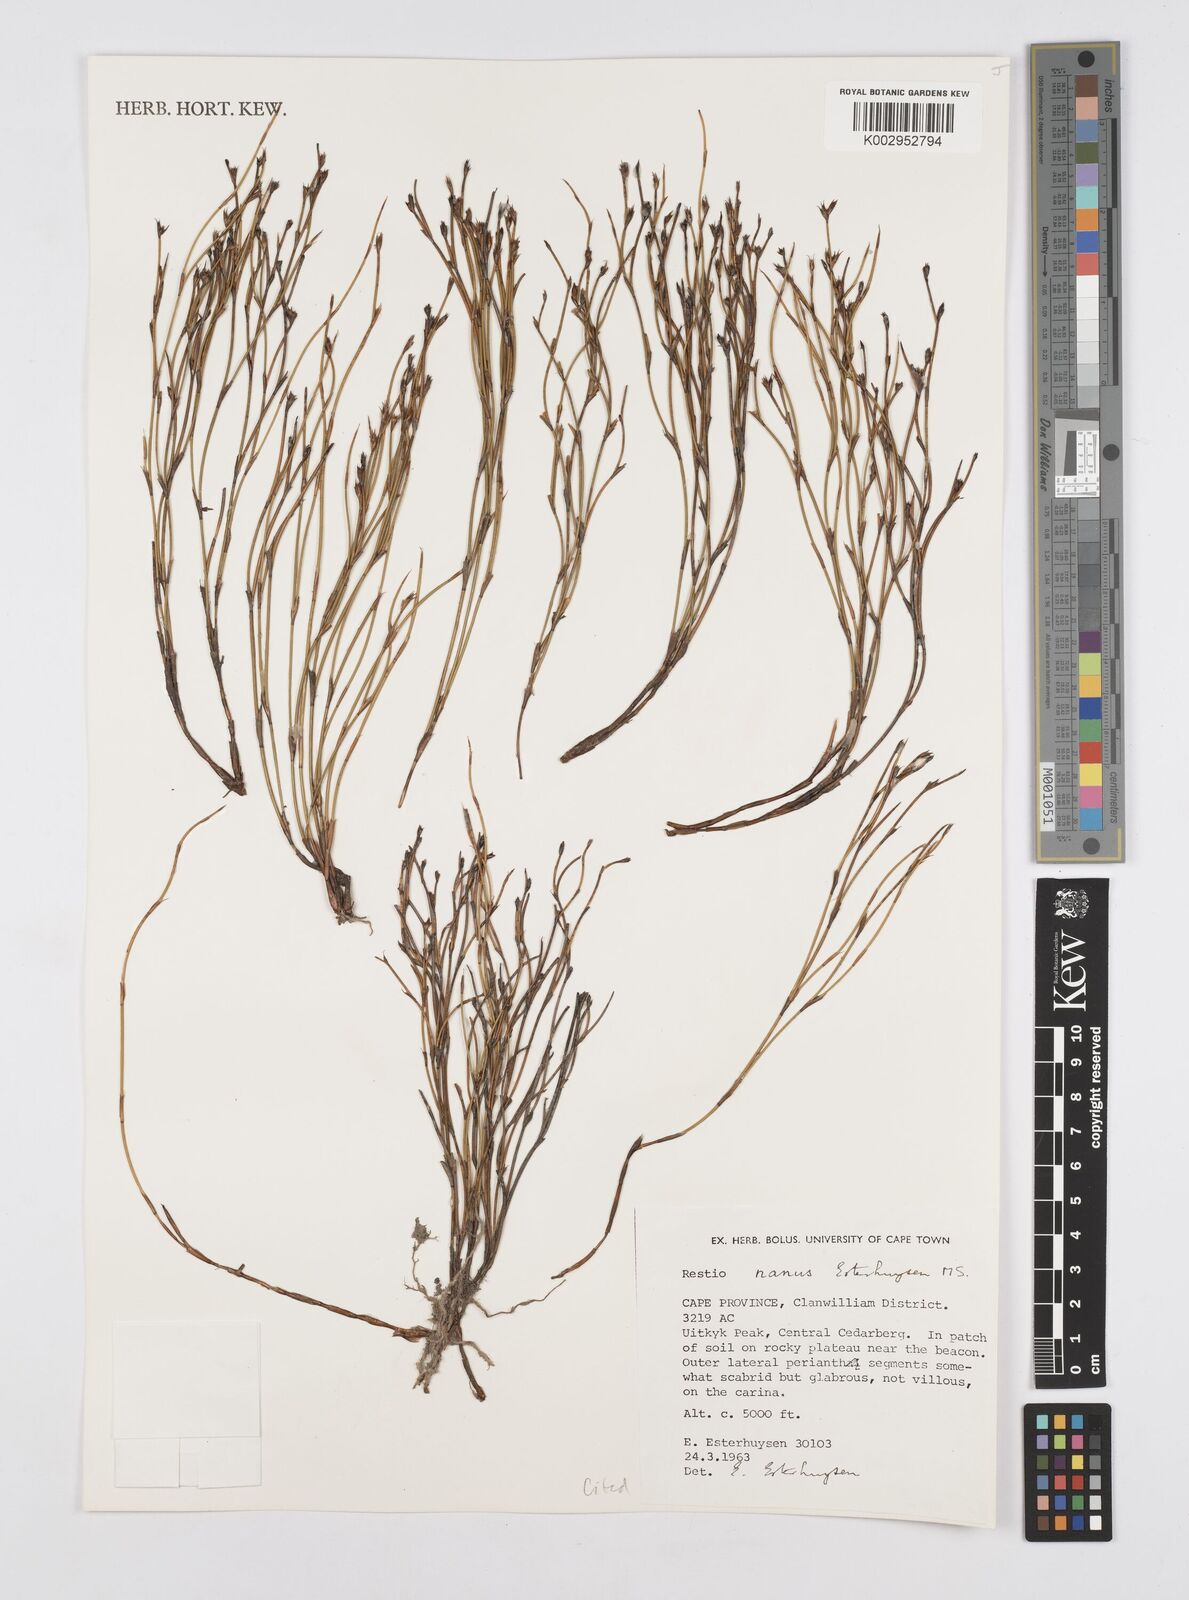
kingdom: Plantae
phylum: Tracheophyta
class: Liliopsida
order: Poales
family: Restionaceae
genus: Restio
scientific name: Restio nanus
